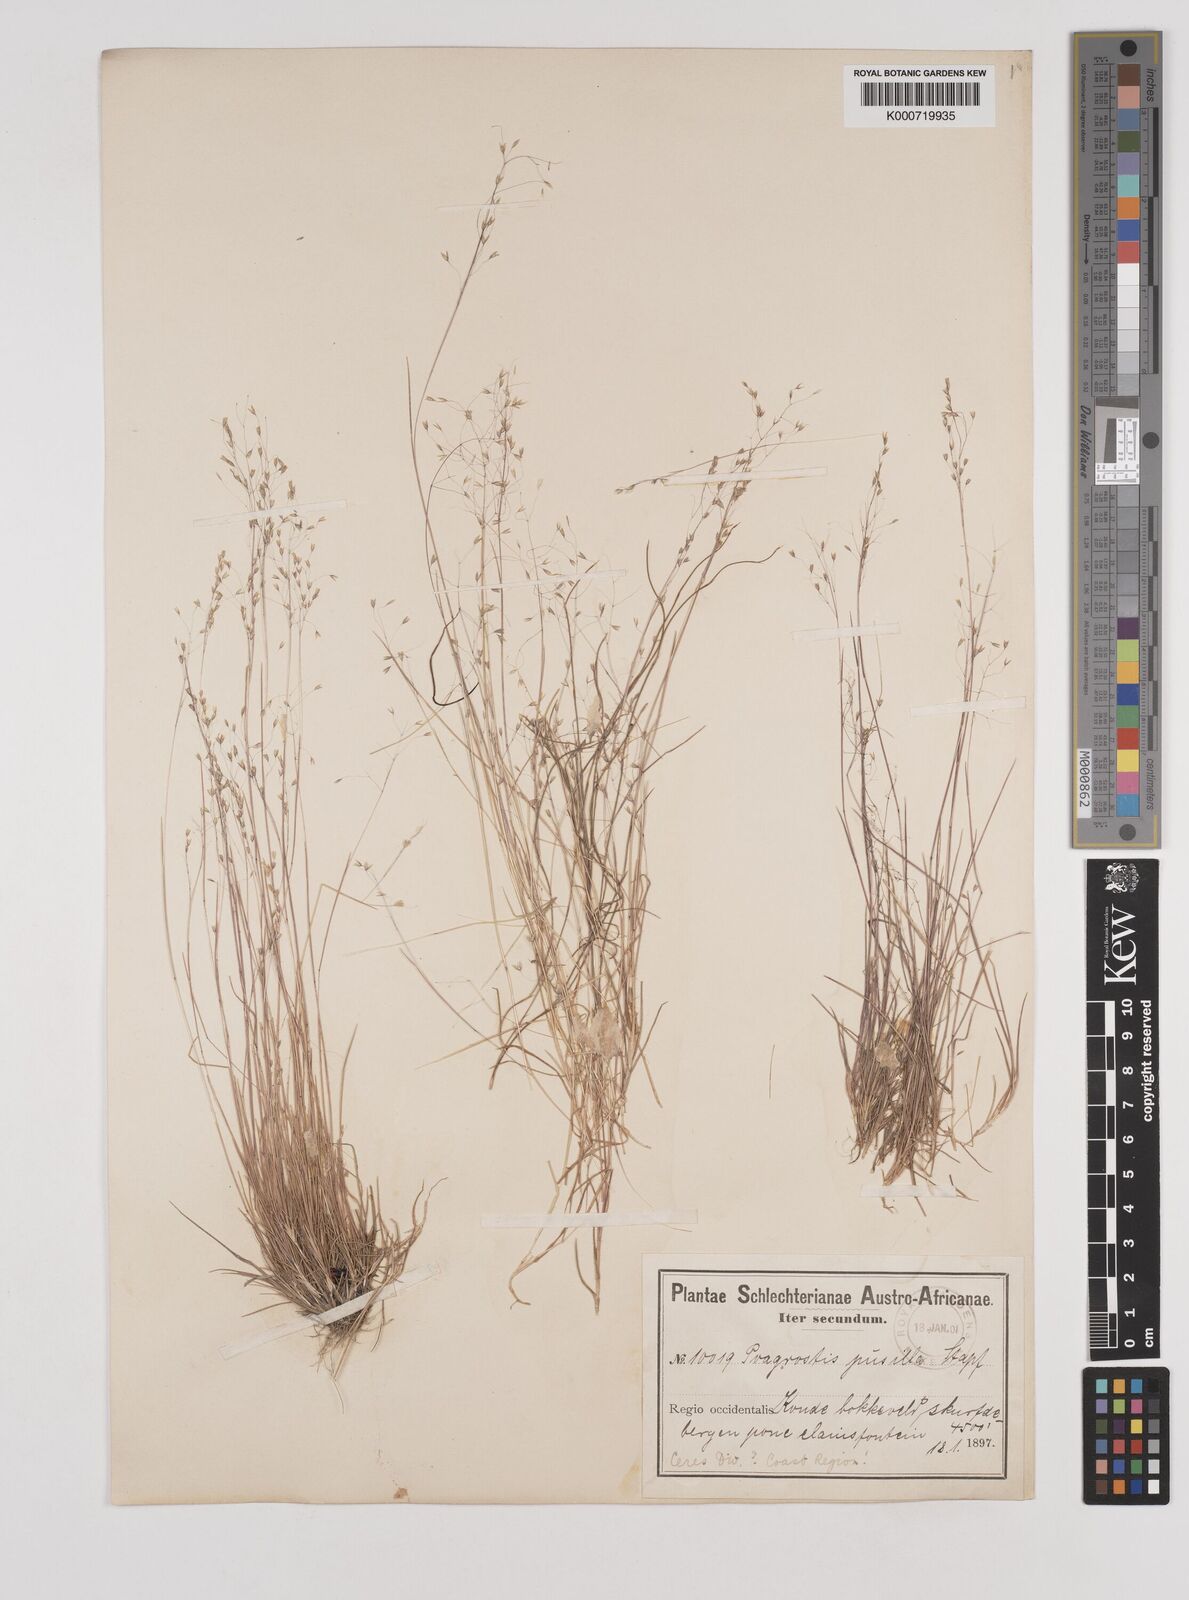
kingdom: Plantae
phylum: Tracheophyta
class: Liliopsida
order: Poales
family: Poaceae
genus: Pentameris
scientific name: Pentameris pusilla
